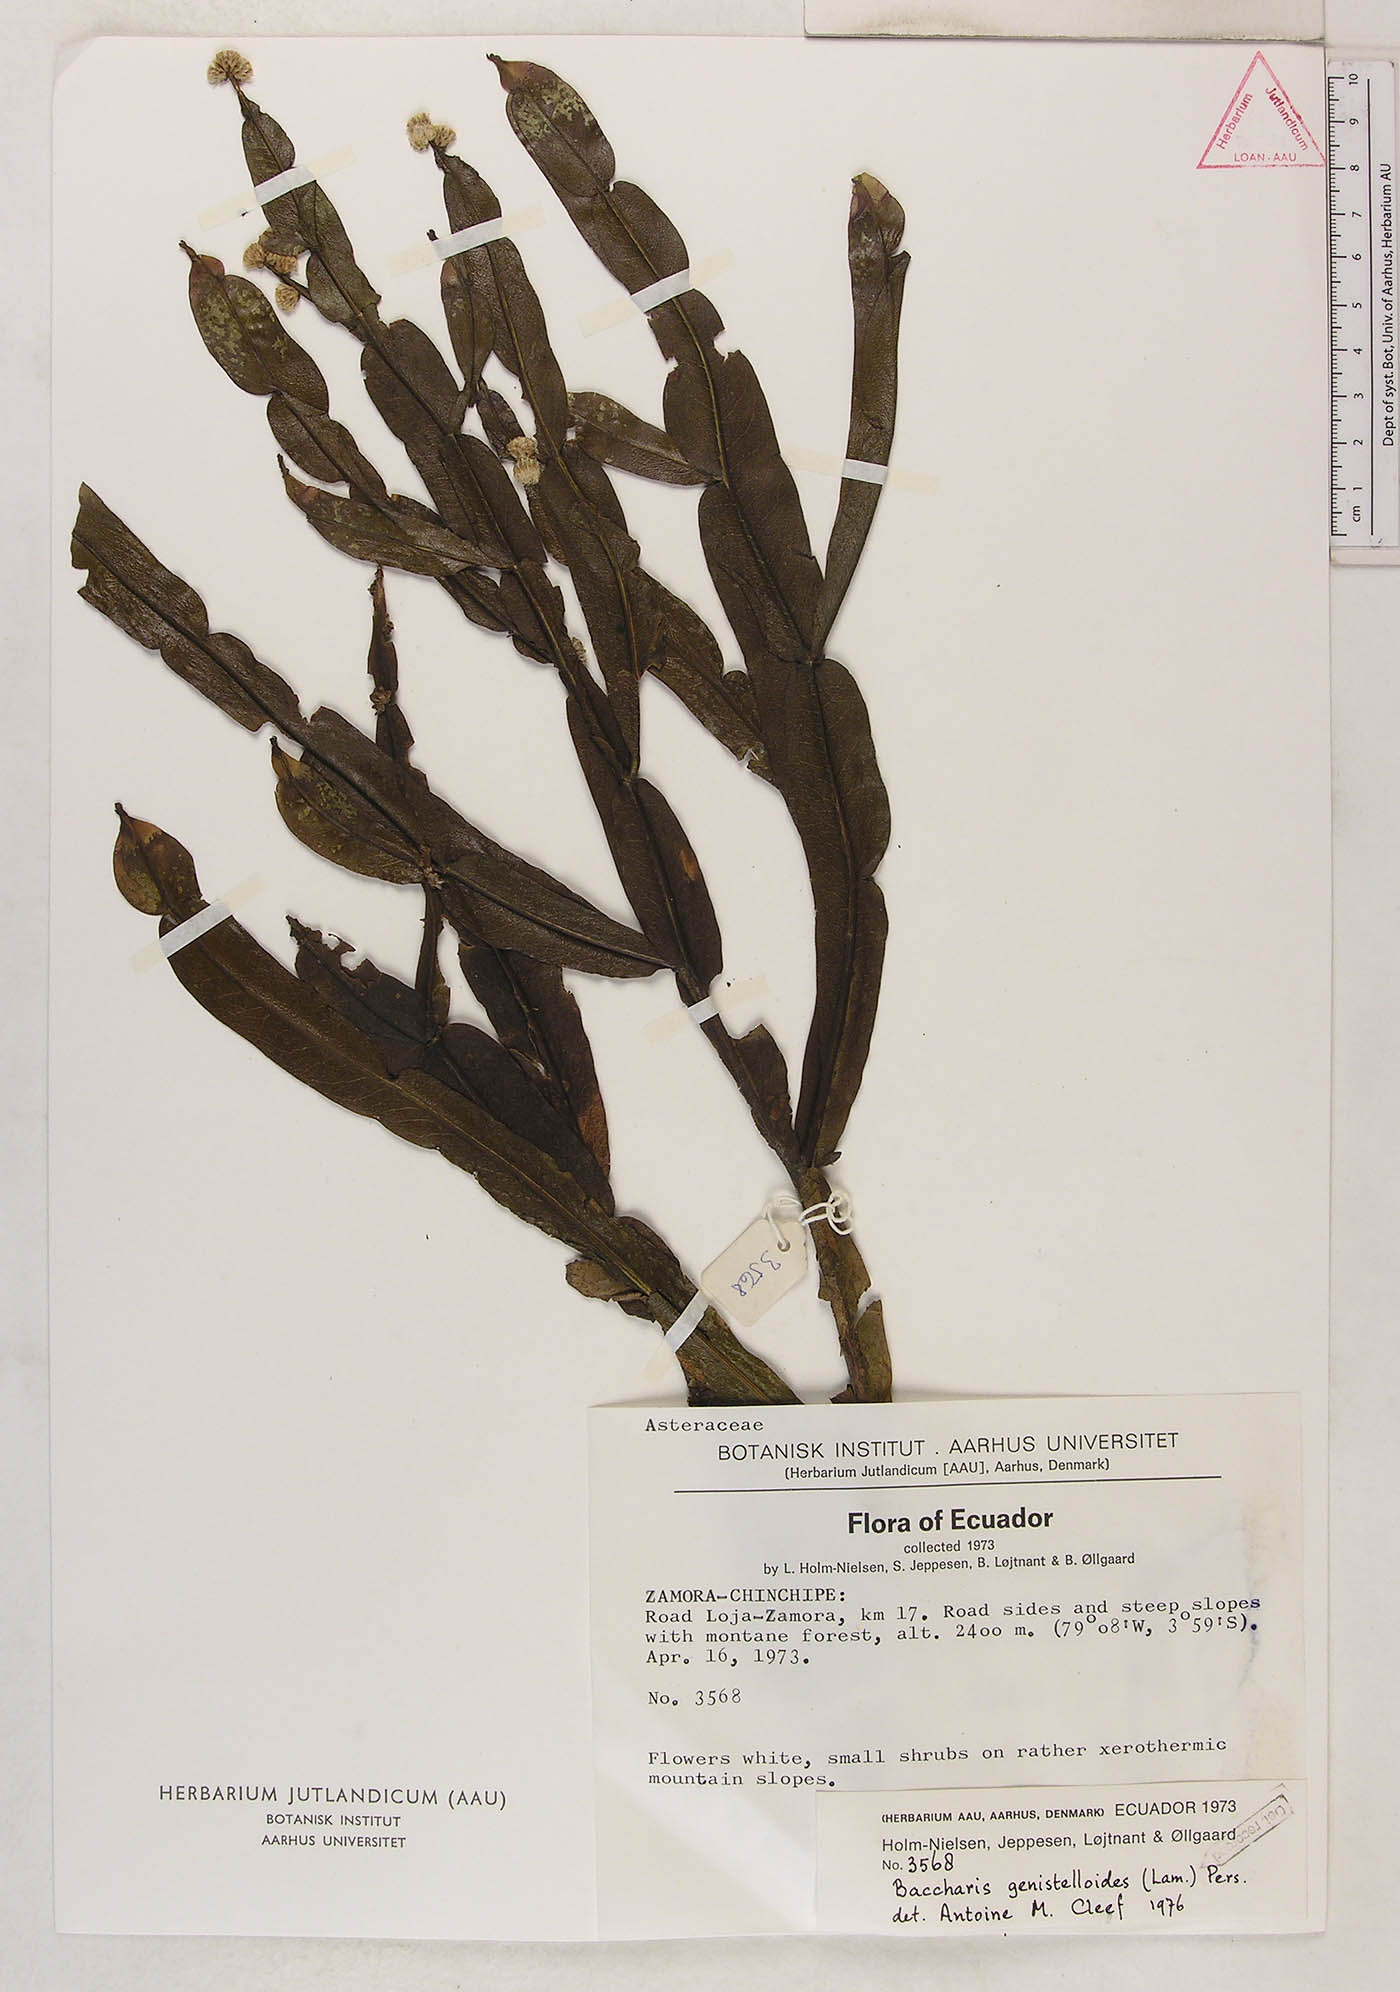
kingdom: Plantae
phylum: Tracheophyta
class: Magnoliopsida
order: Asterales
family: Asteraceae
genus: Baccharis
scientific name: Baccharis genistelloides
